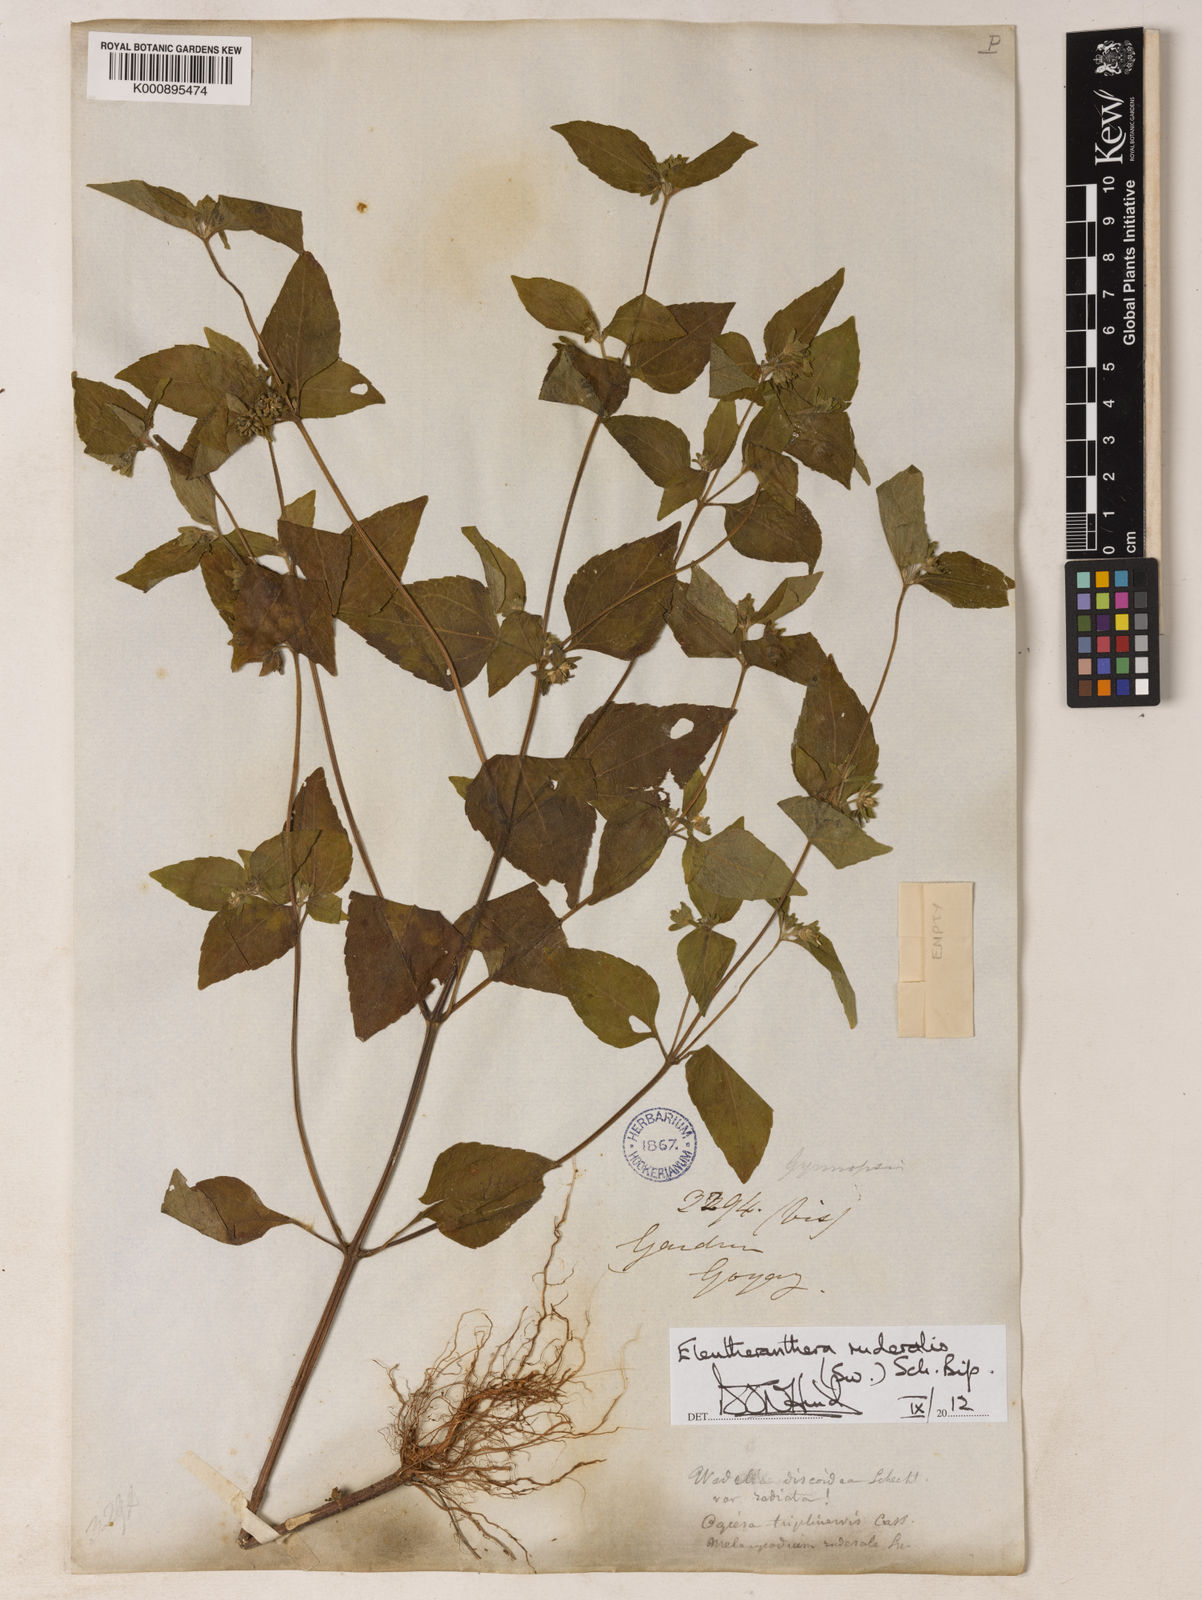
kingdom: Plantae
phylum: Tracheophyta
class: Magnoliopsida
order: Asterales
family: Asteraceae
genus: Eleutheranthera
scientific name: Eleutheranthera ruderalis
